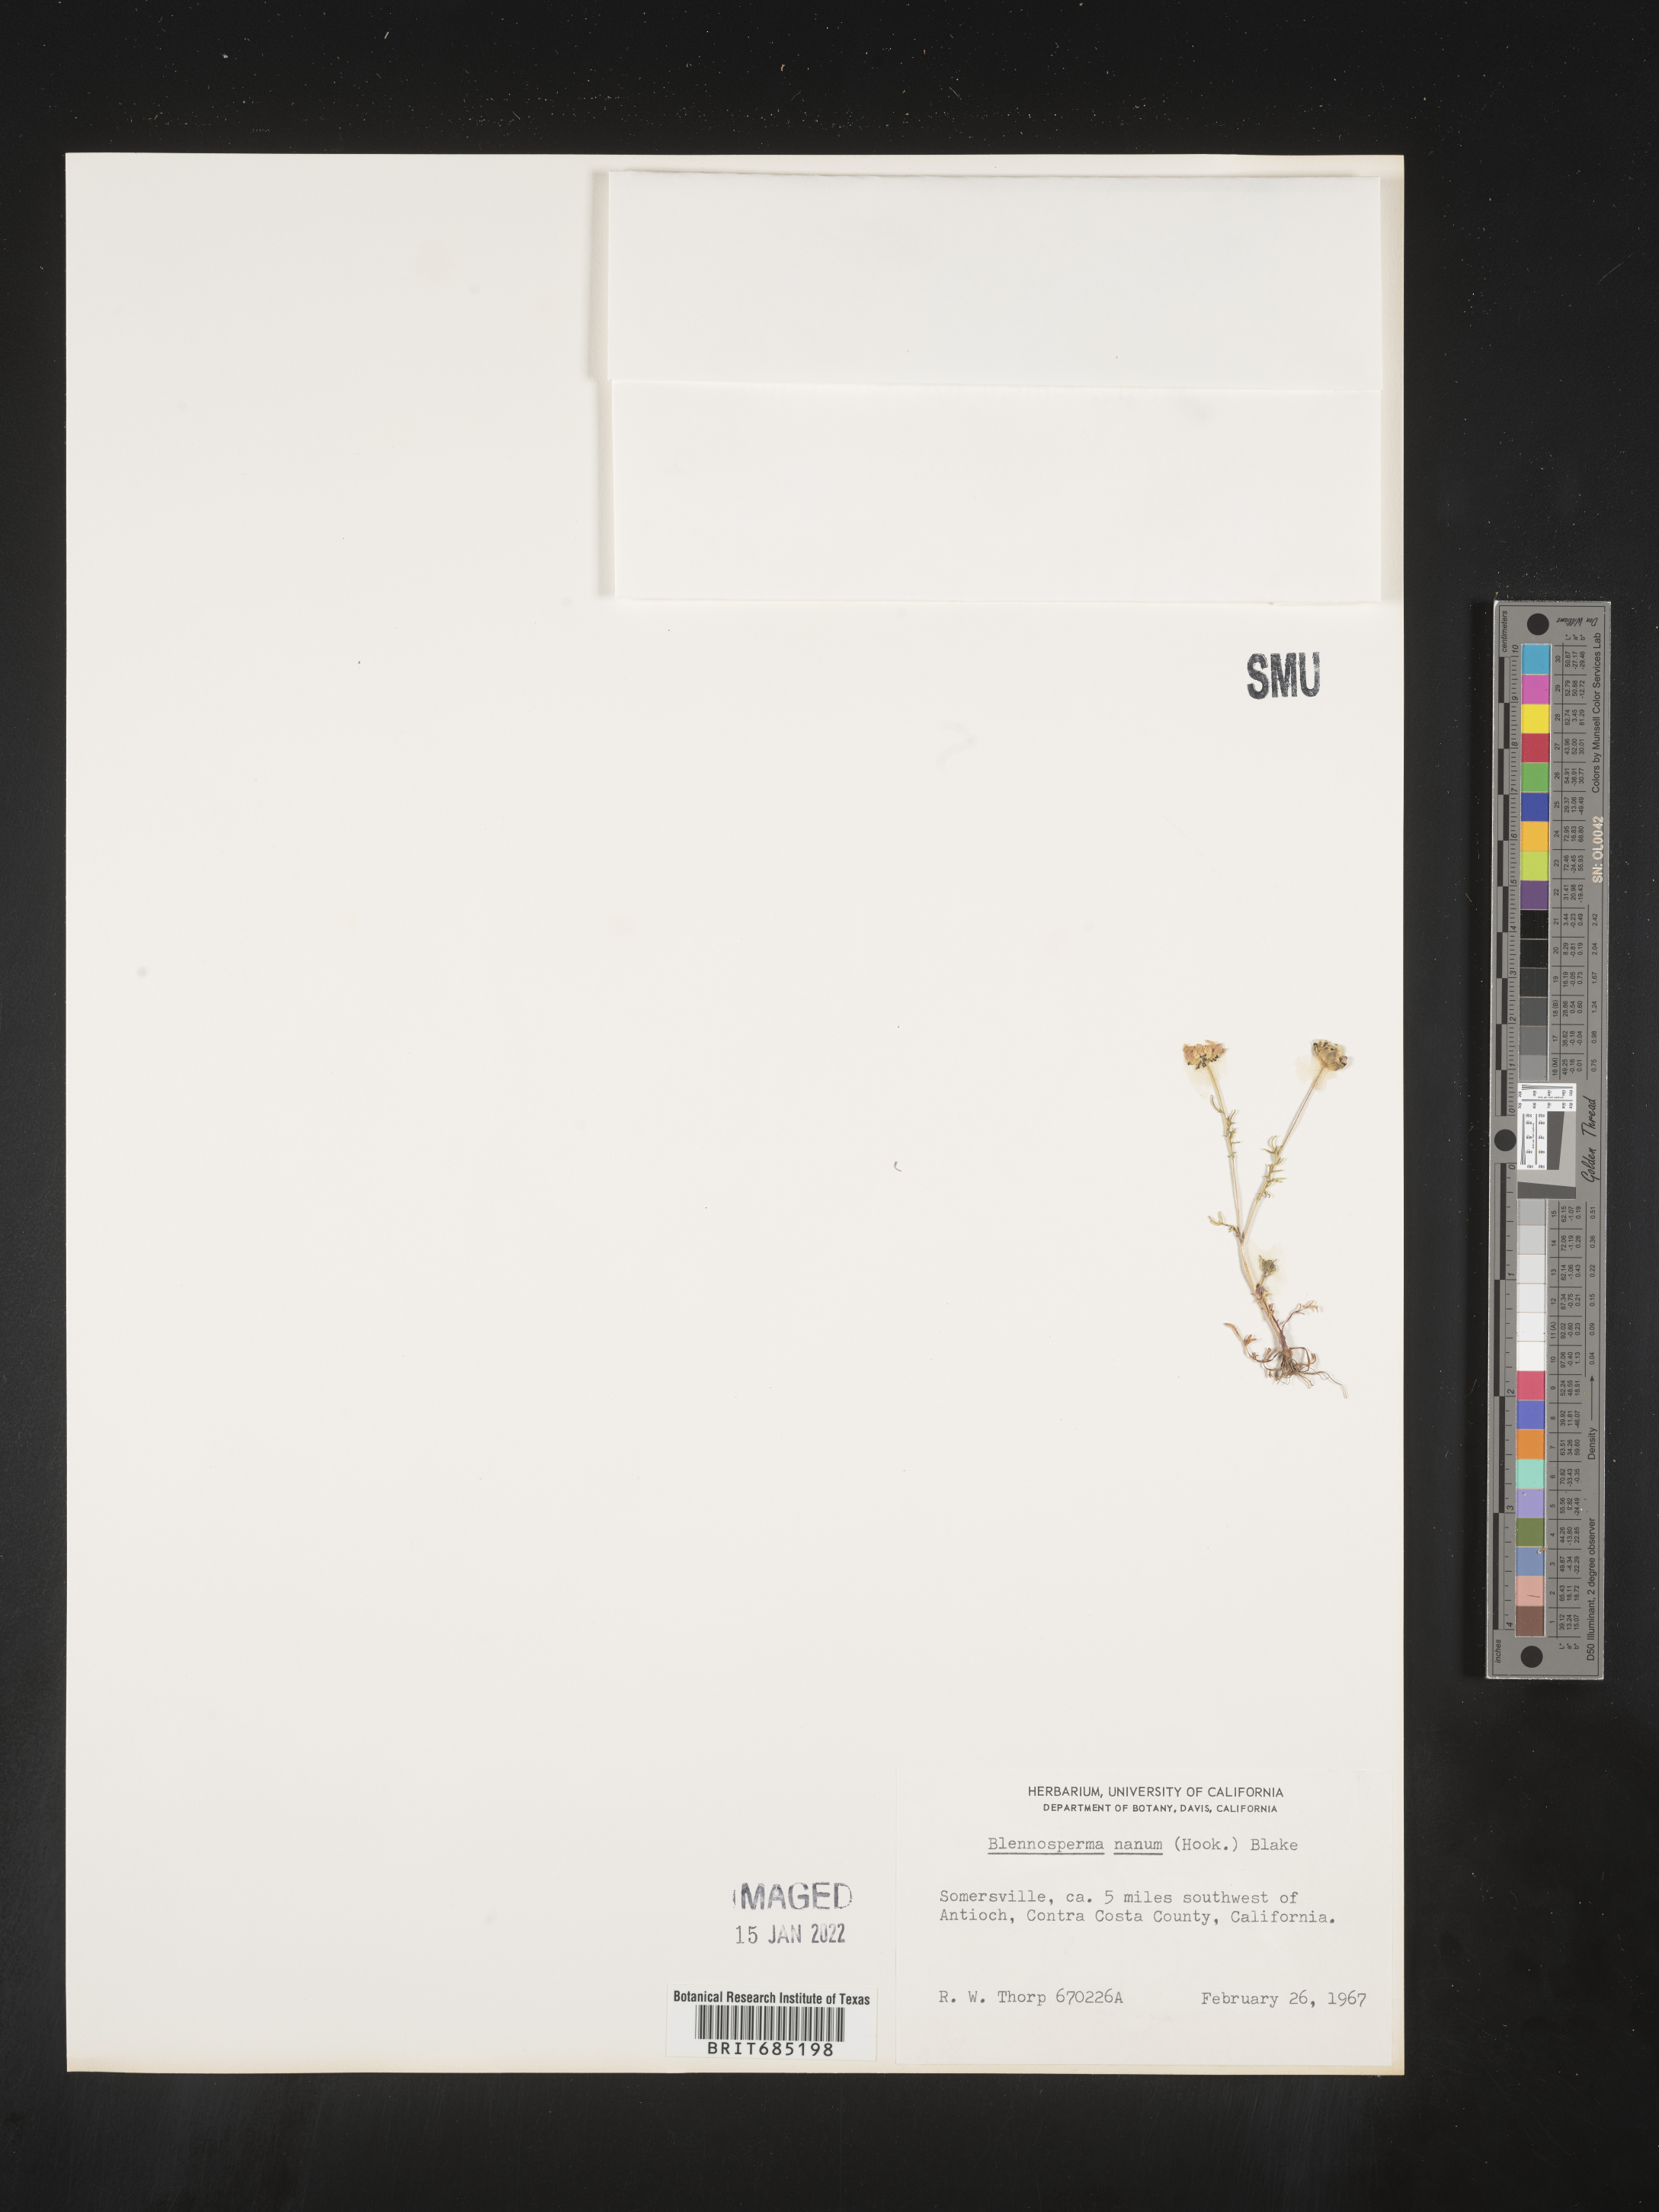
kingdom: Plantae
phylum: Tracheophyta
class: Magnoliopsida
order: Asterales
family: Asteraceae
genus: Blennosperma
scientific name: Blennosperma
